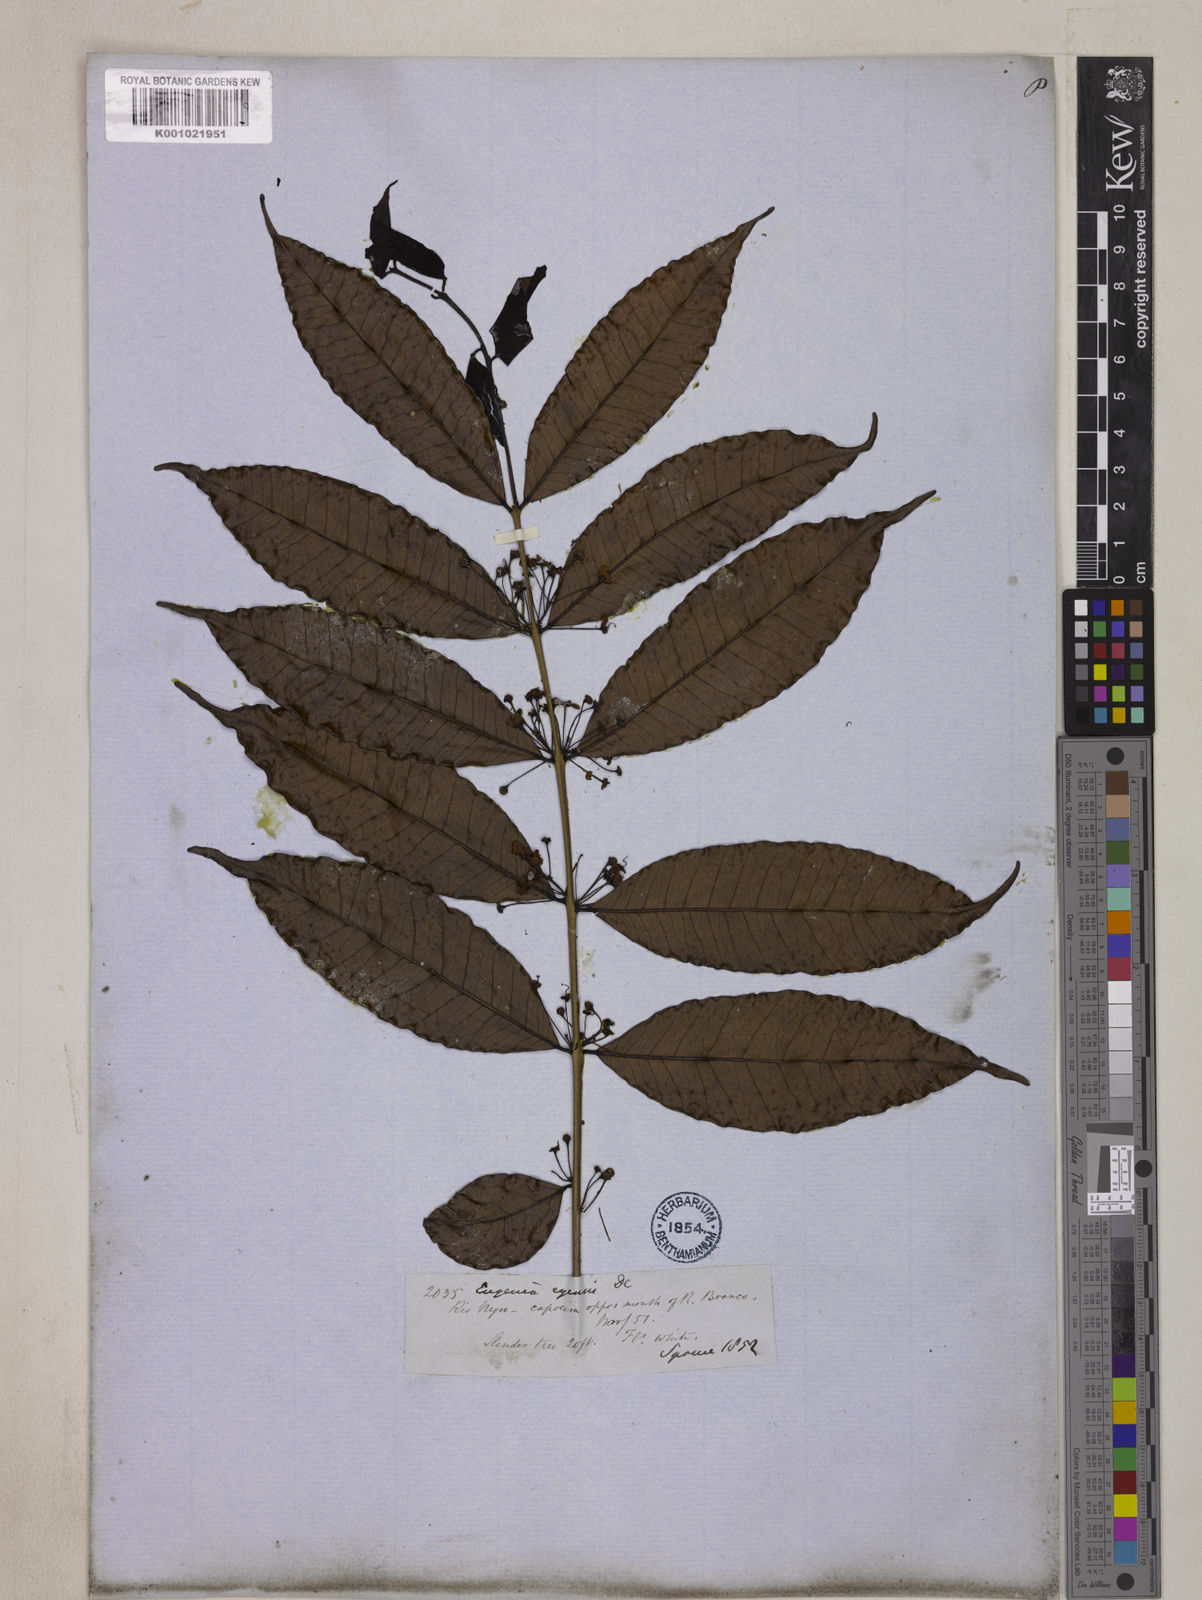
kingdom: Plantae
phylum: Tracheophyta
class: Magnoliopsida
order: Myrtales
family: Myrtaceae
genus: Eugenia
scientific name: Eugenia egensis
